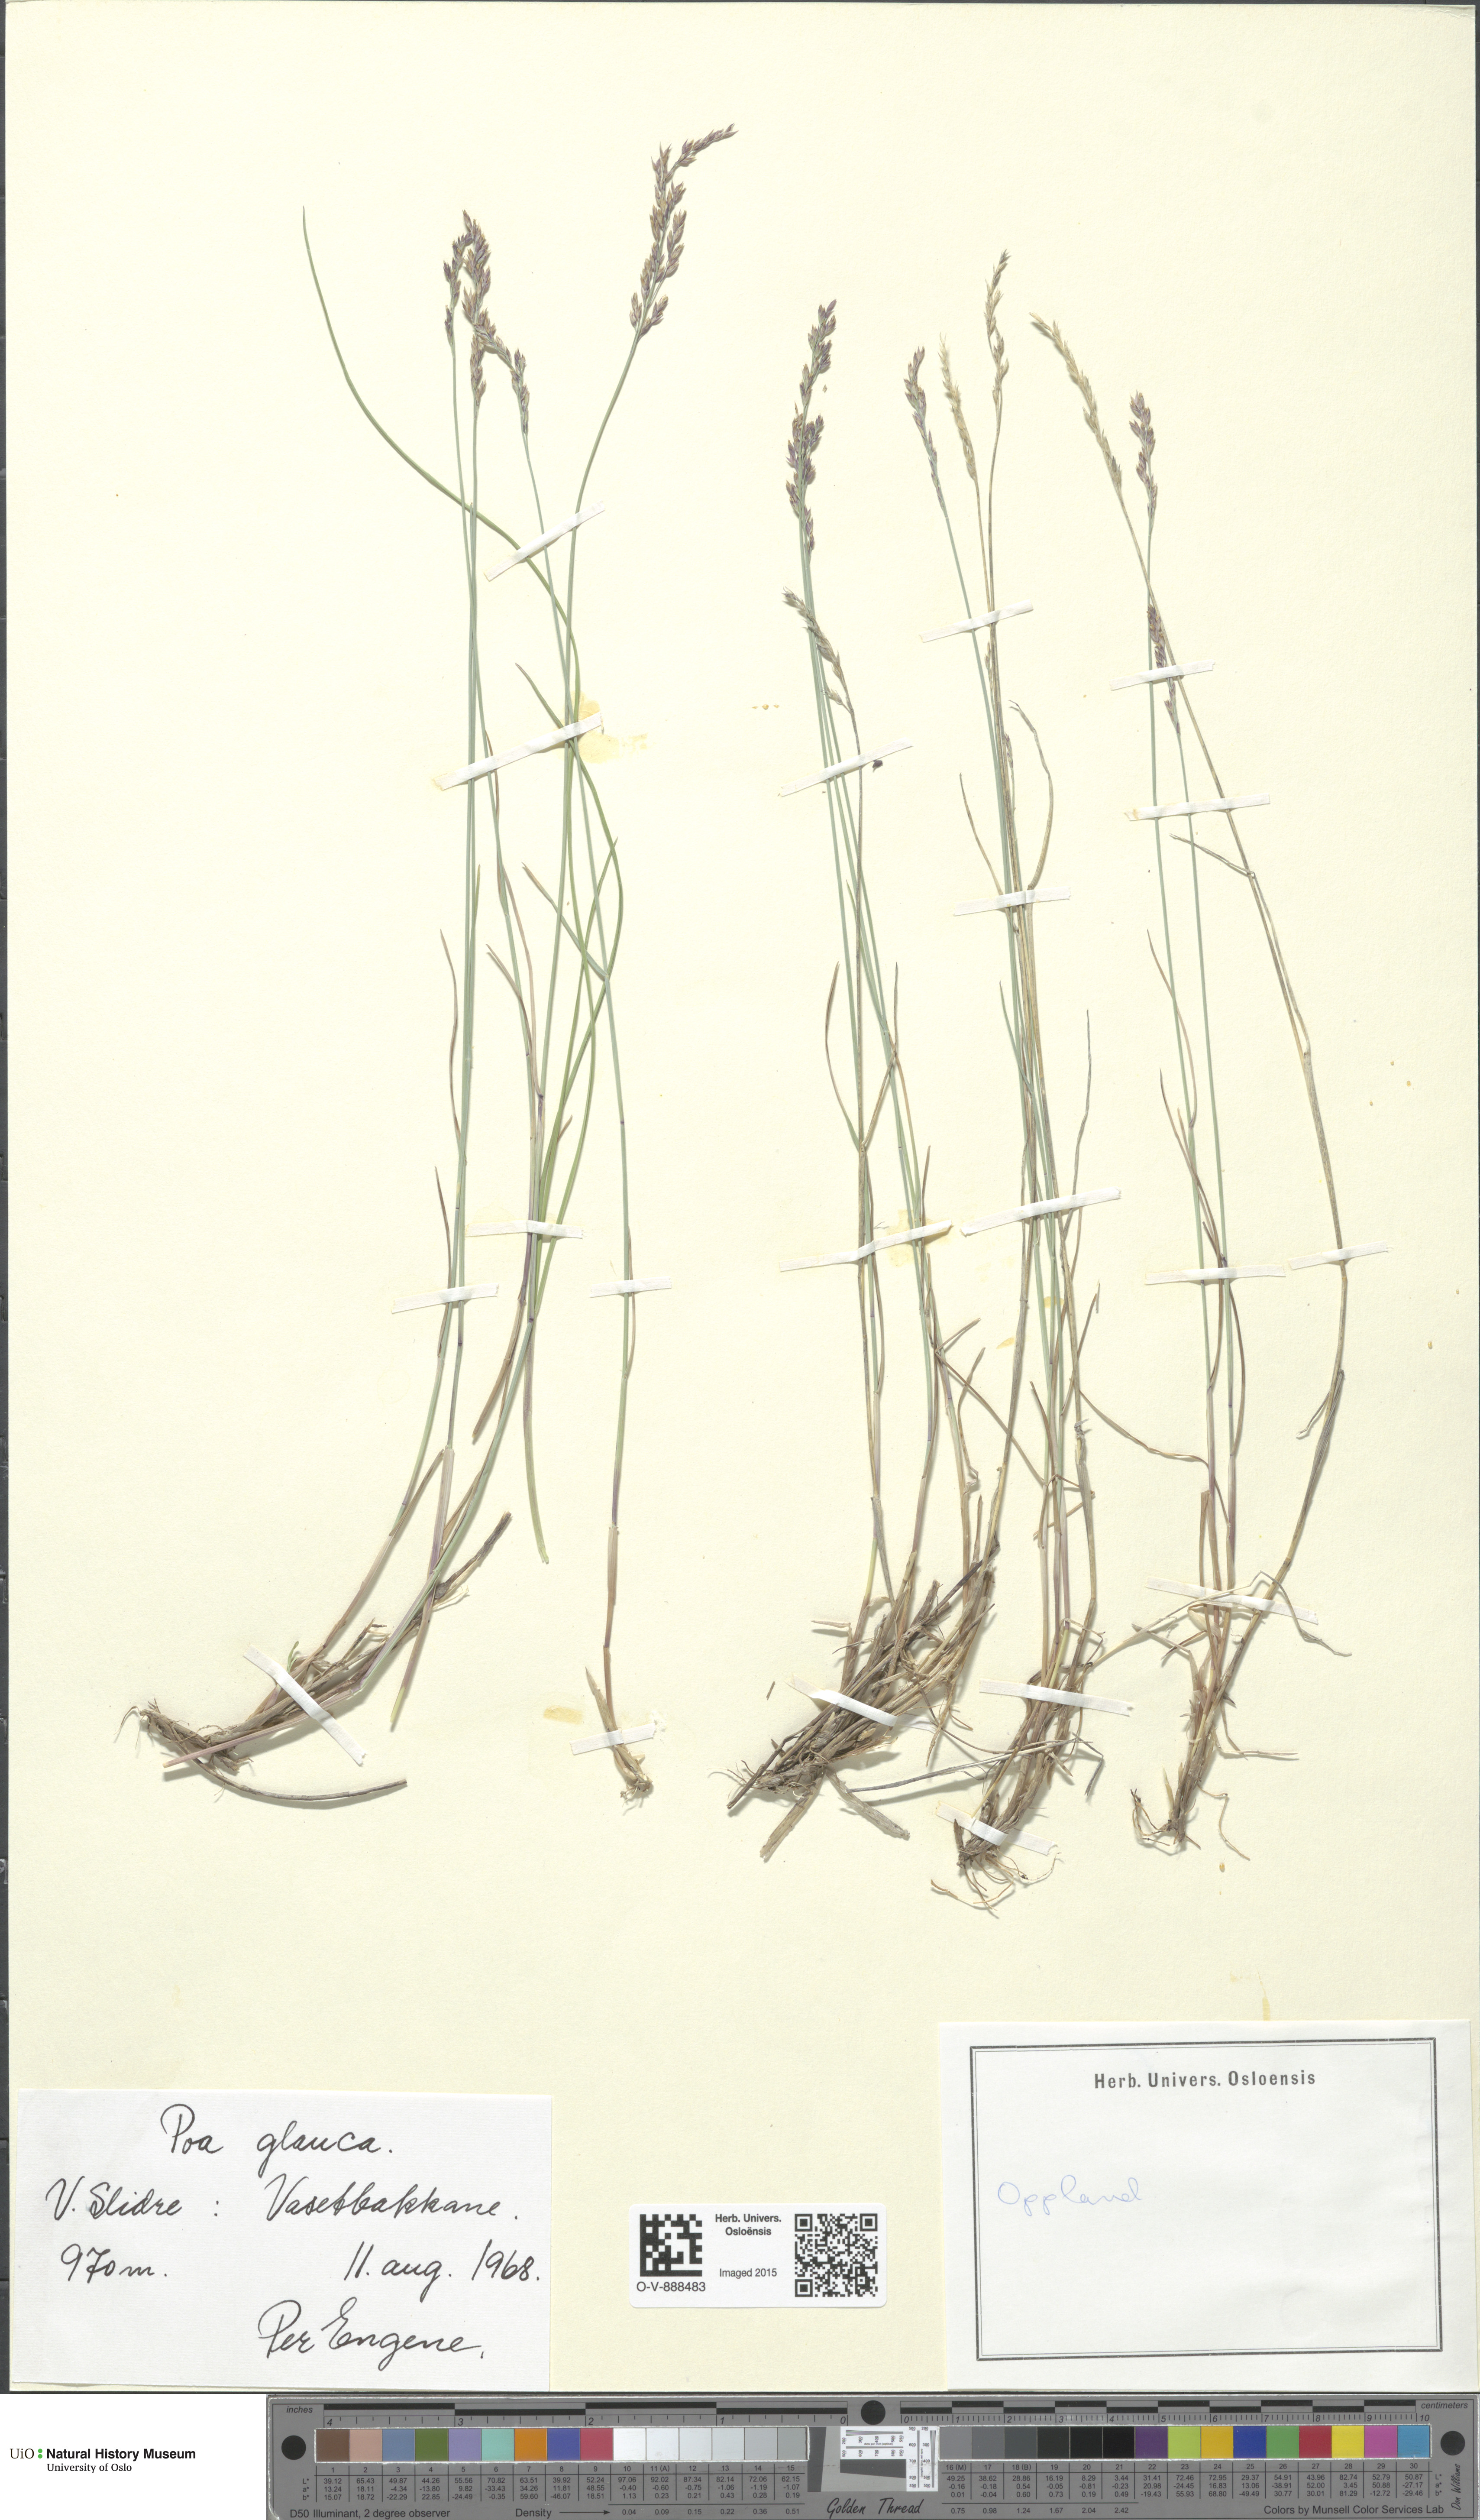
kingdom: Plantae
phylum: Tracheophyta
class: Liliopsida
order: Poales
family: Poaceae
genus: Poa
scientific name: Poa glauca
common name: Glaucous bluegrass
